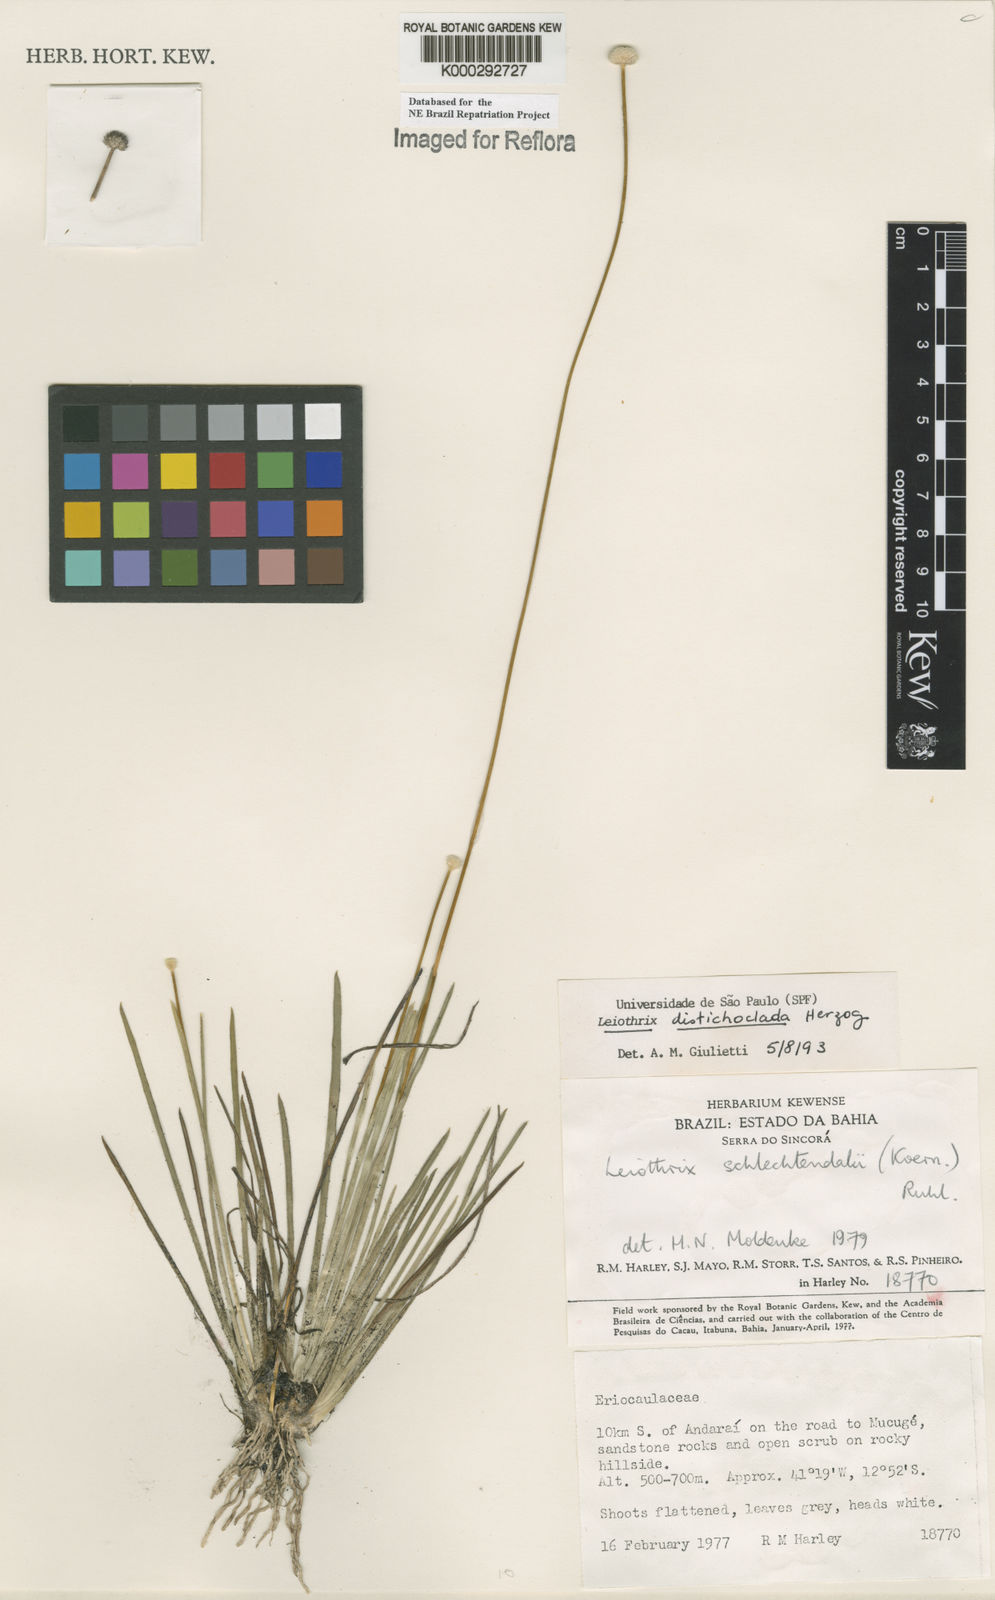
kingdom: Plantae
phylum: Tracheophyta
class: Liliopsida
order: Poales
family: Eriocaulaceae
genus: Leiothrix
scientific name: Leiothrix distichoclada
